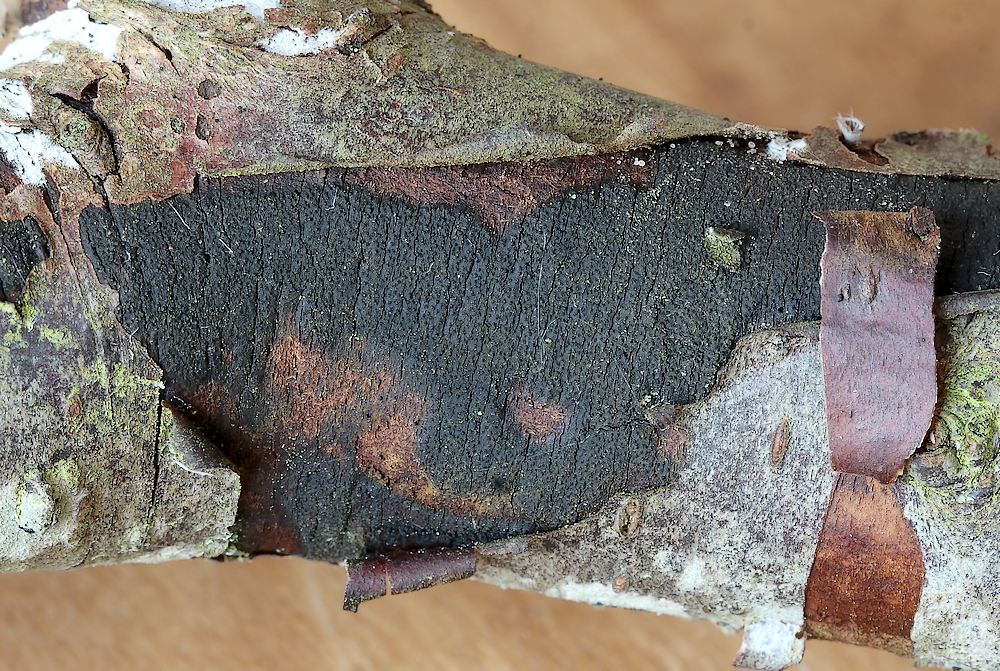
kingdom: Fungi
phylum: Ascomycota
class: Sordariomycetes
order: Xylariales
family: Diatrypaceae
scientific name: Diatrypaceae
